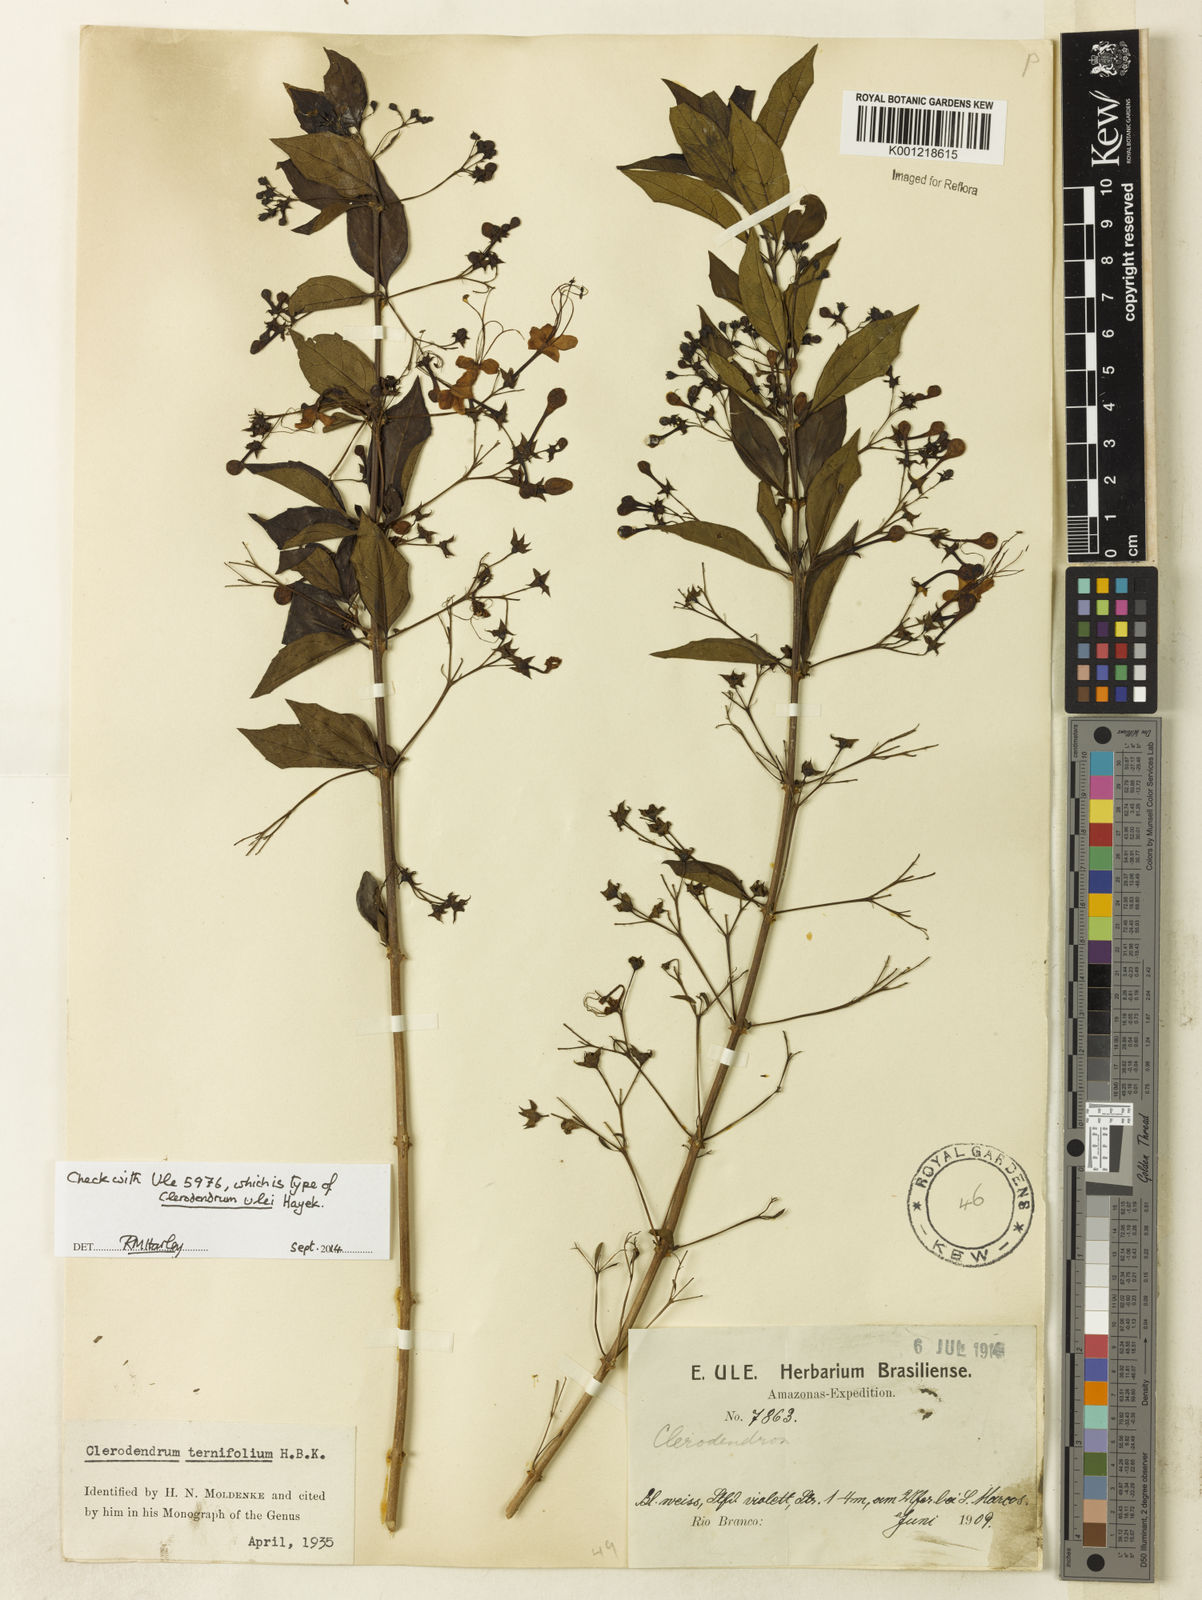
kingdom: Plantae
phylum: Tracheophyta
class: Magnoliopsida
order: Lamiales
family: Lamiaceae
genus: Volkameria
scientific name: Volkameria aculeata
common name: Prickly myrtle
